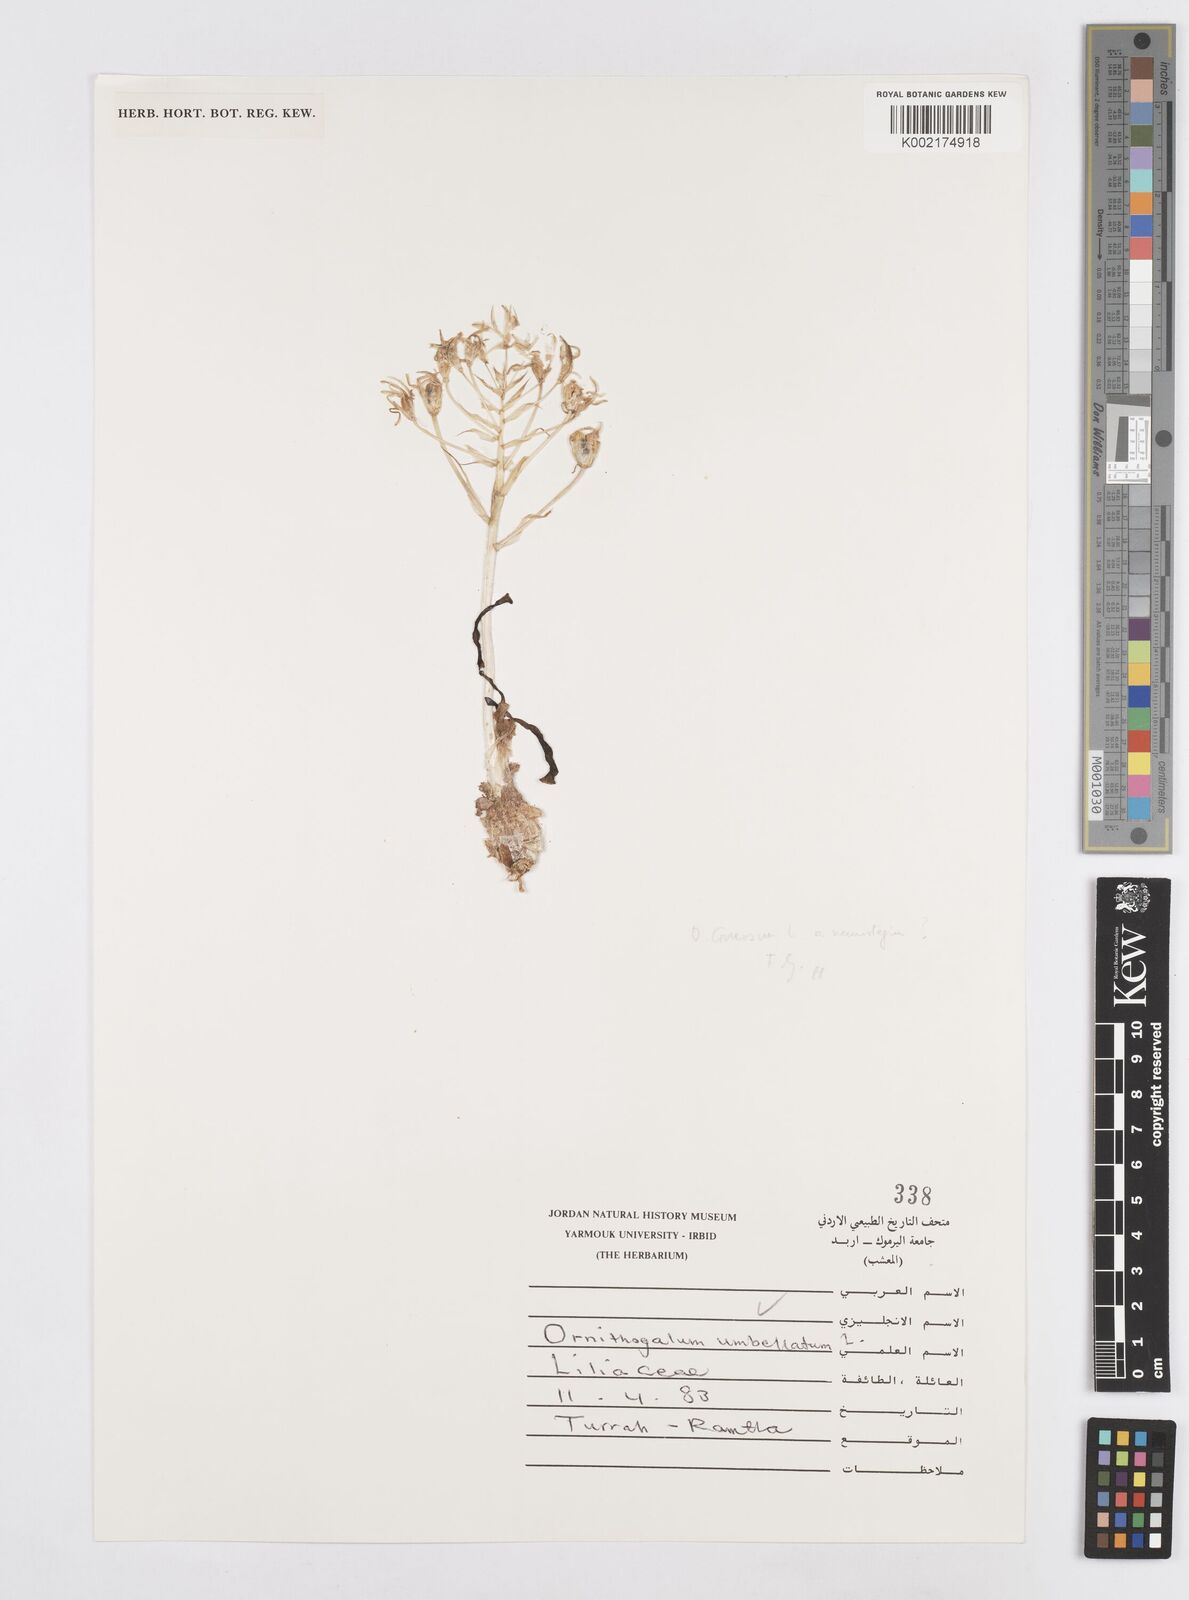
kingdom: Plantae
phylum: Tracheophyta
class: Liliopsida
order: Asparagales
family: Asparagaceae
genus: Ornithogalum
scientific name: Ornithogalum umbellatum
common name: Garden star-of-bethlehem
